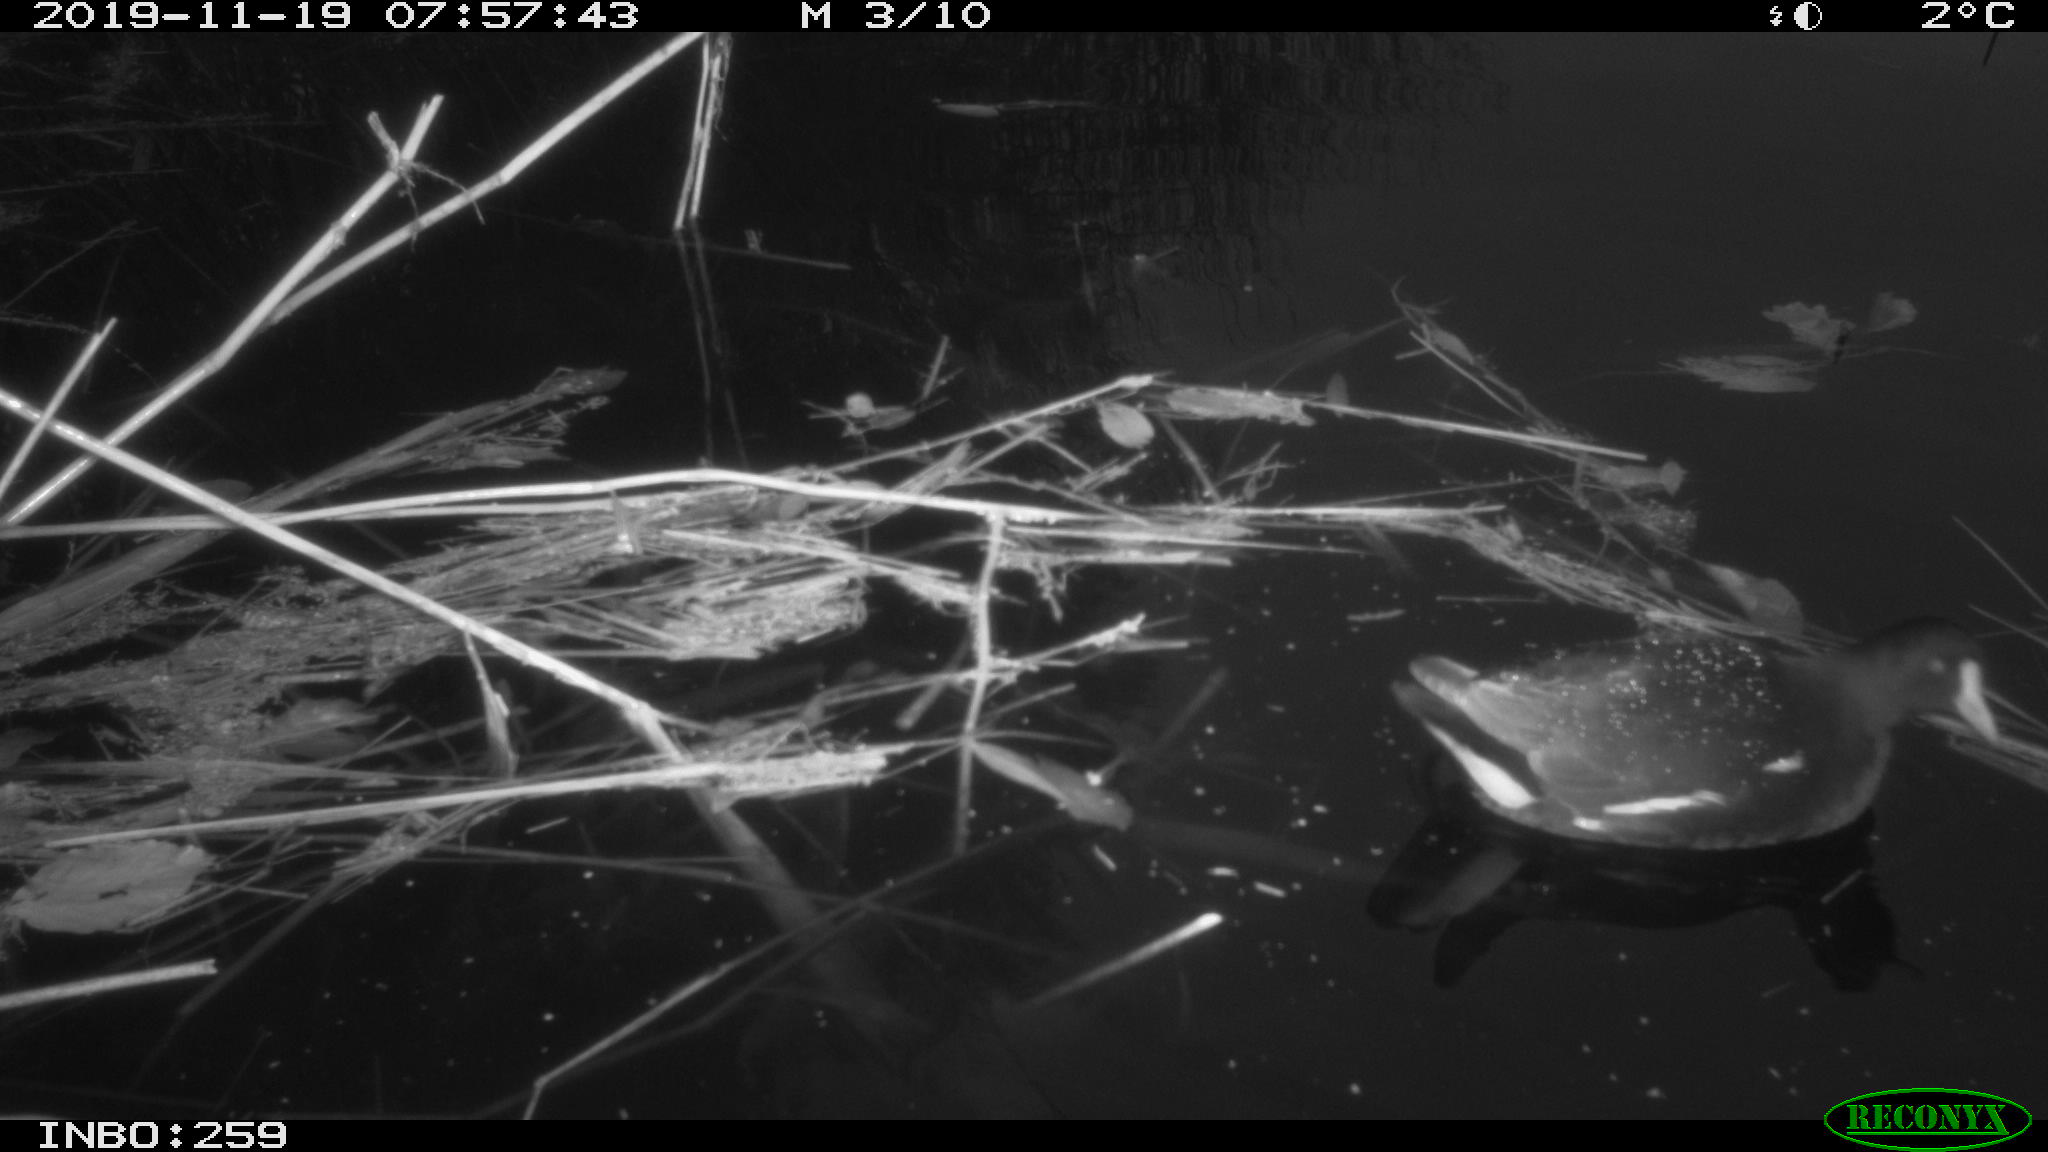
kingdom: Animalia
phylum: Chordata
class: Aves
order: Gruiformes
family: Rallidae
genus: Gallinula
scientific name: Gallinula chloropus
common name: Common moorhen
